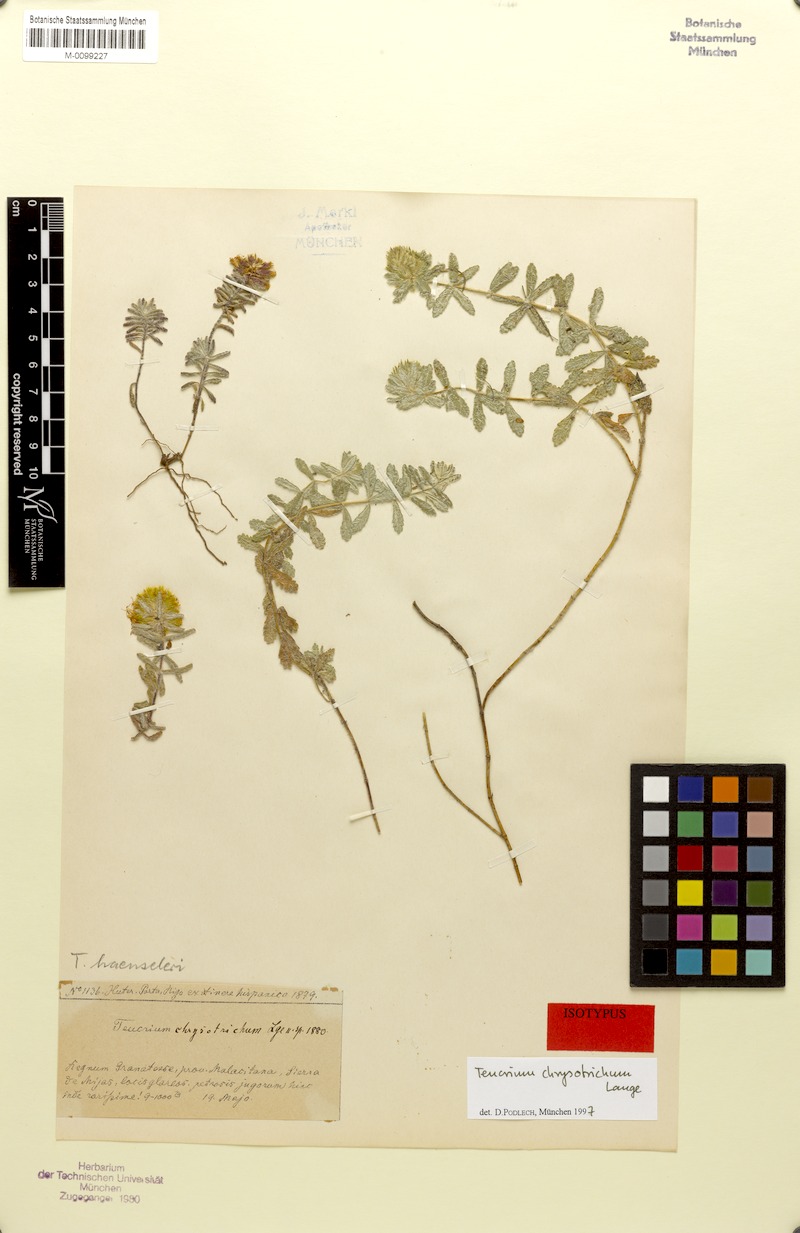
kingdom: Plantae
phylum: Tracheophyta
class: Magnoliopsida
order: Lamiales
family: Lamiaceae
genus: Teucrium
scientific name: Teucrium haenseleri
